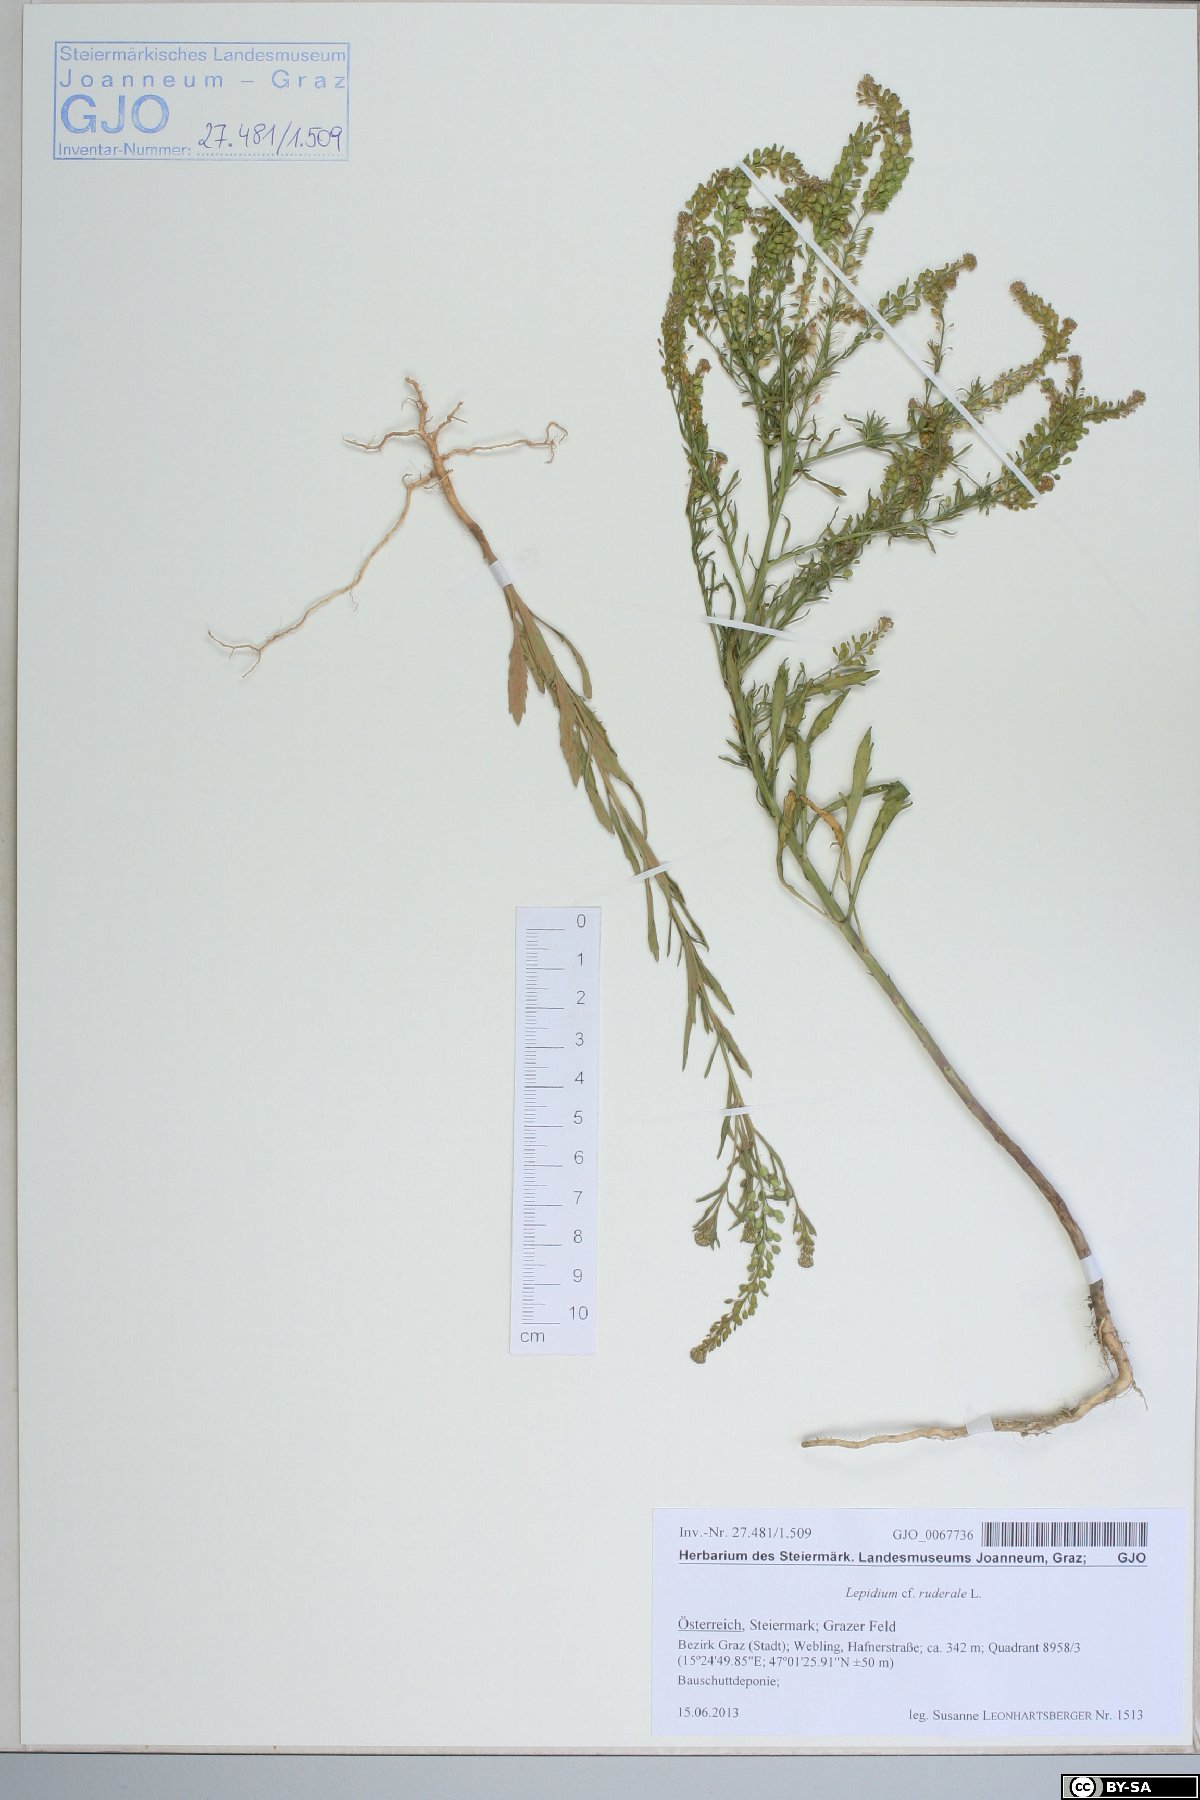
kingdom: Plantae
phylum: Tracheophyta
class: Magnoliopsida
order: Brassicales
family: Brassicaceae
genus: Lepidium
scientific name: Lepidium ruderale
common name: Narrow-leaved pepperwort
